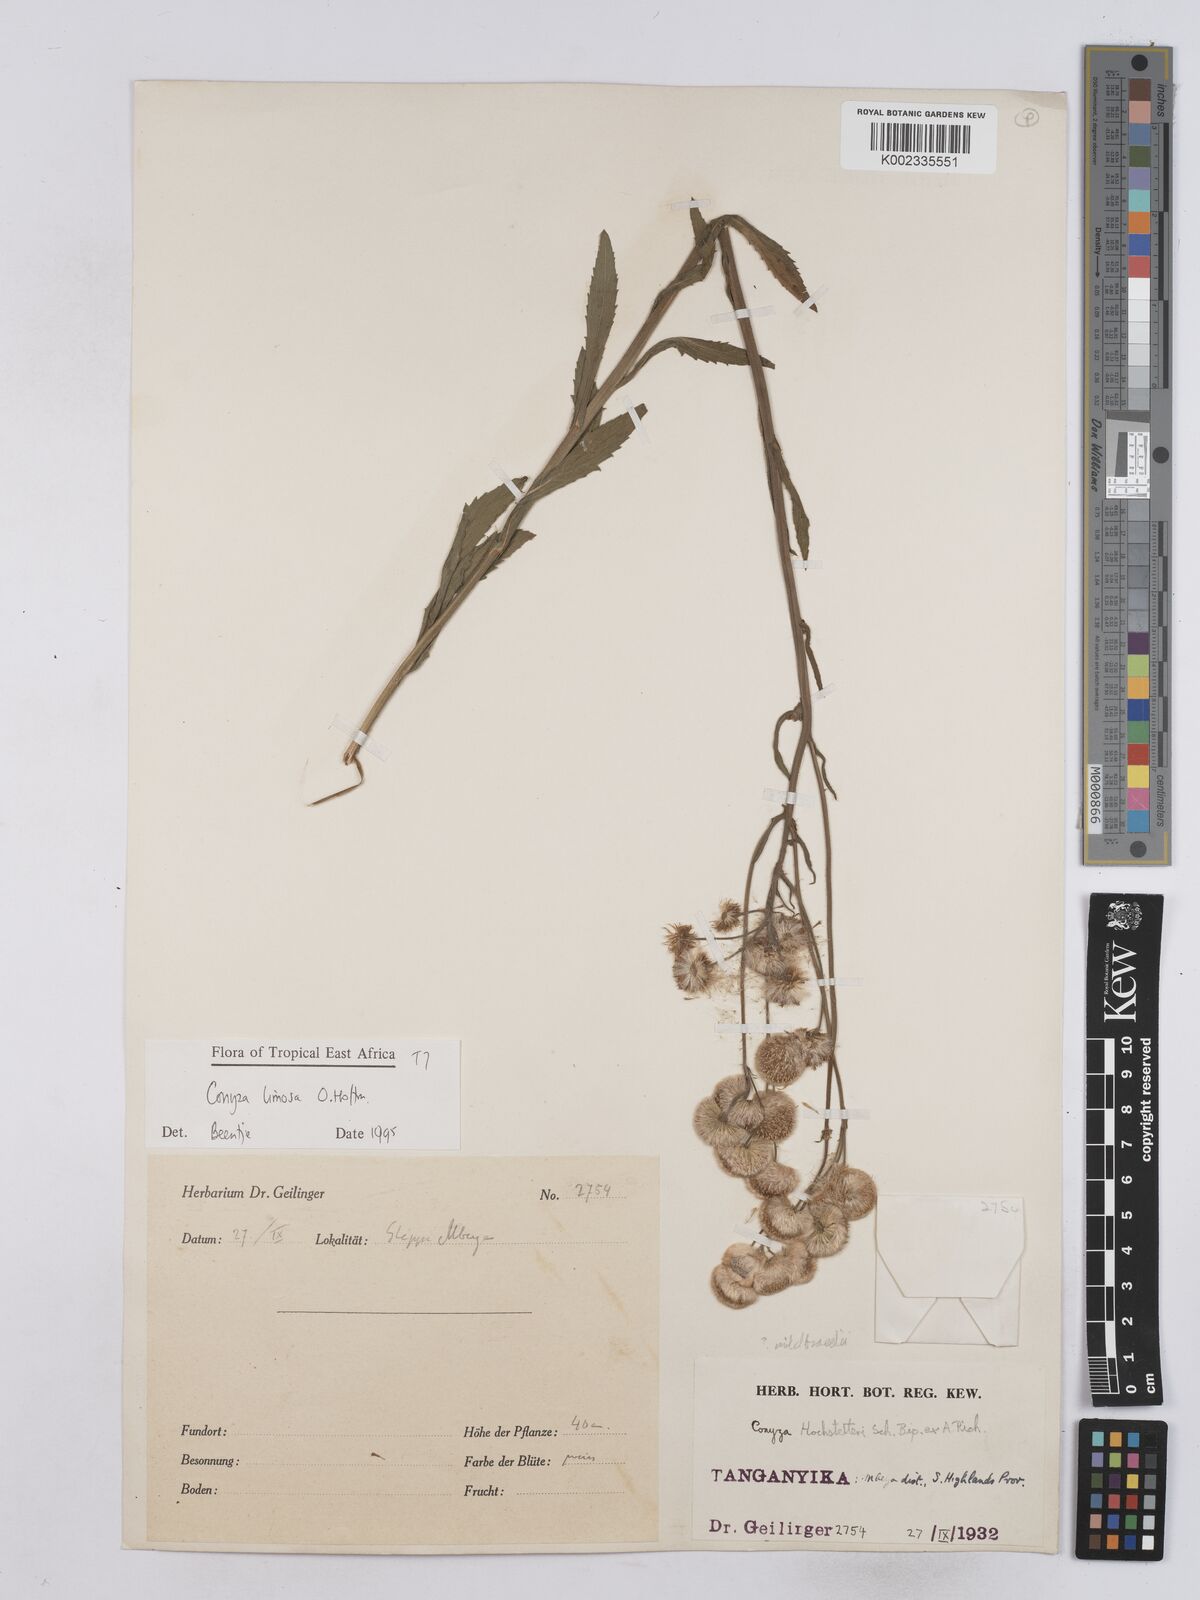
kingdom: Plantae
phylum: Tracheophyta
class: Magnoliopsida
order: Asterales
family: Asteraceae
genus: Conyza
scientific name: Conyza limosa
